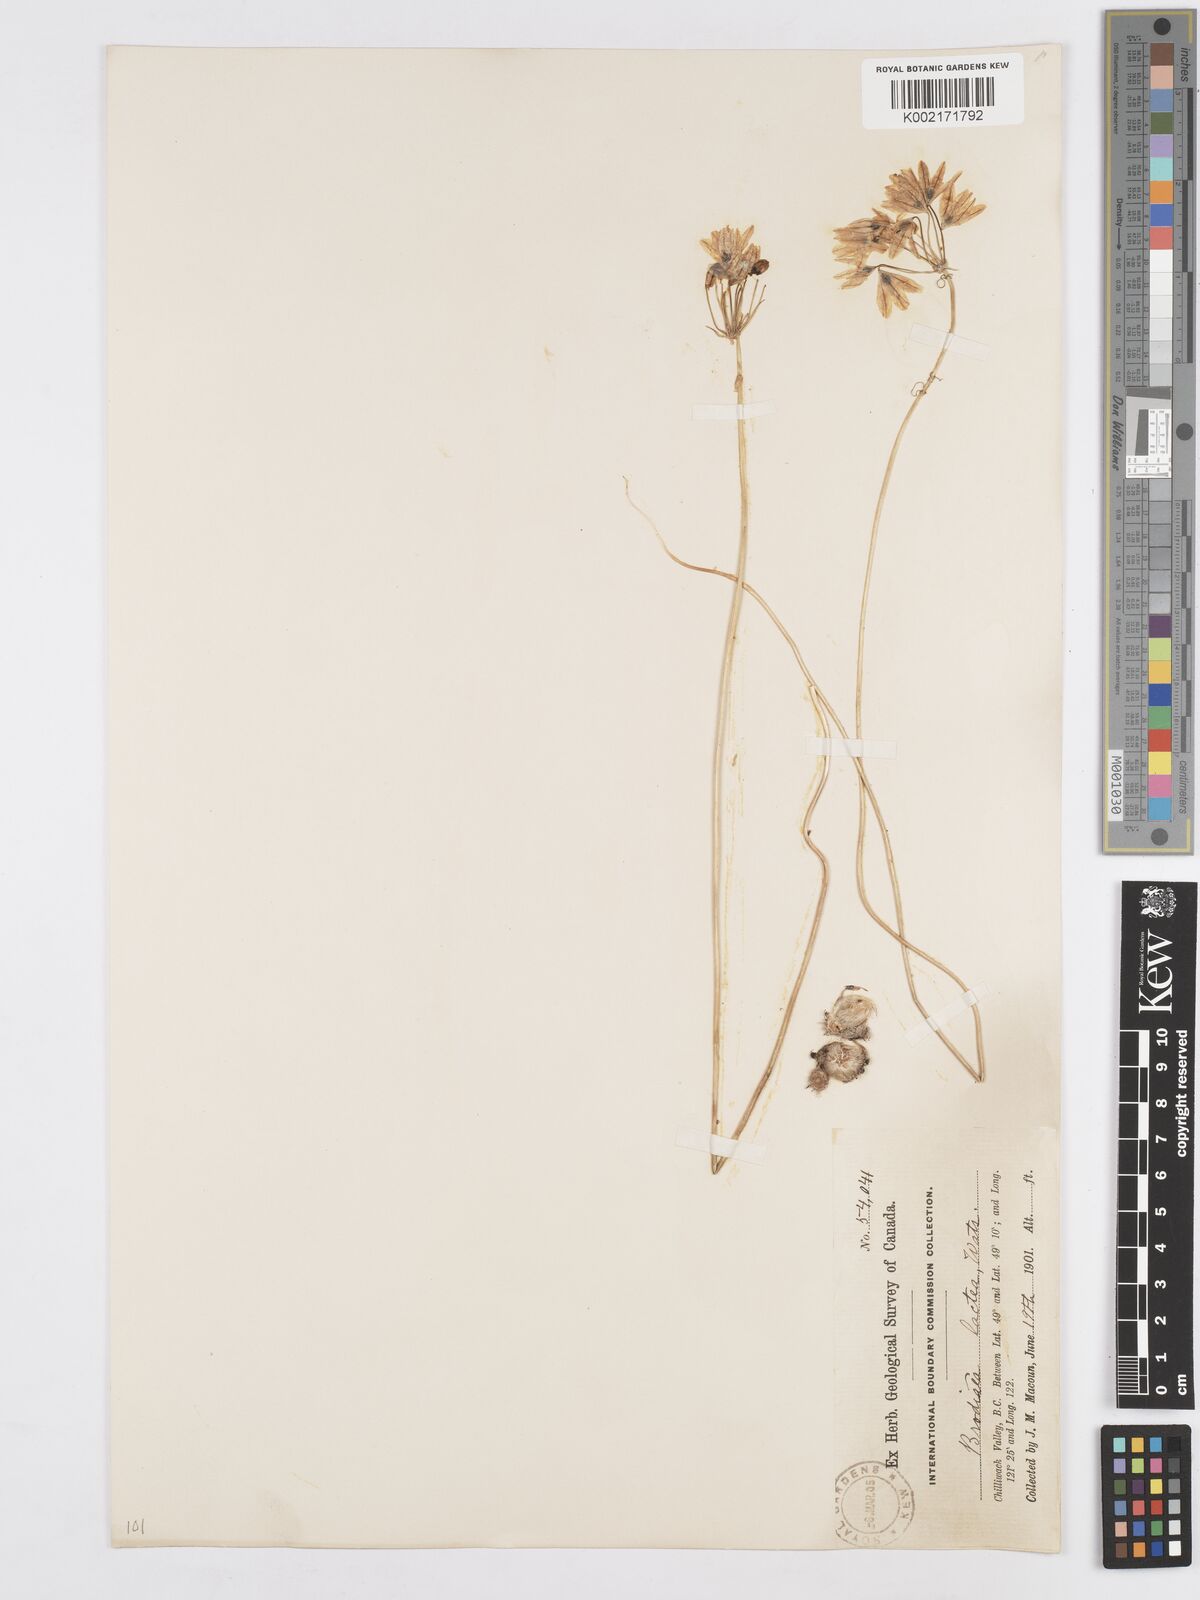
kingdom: Plantae
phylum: Tracheophyta
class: Liliopsida
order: Asparagales
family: Asparagaceae
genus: Triteleia
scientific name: Triteleia hyacinthina
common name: White brodiaea
